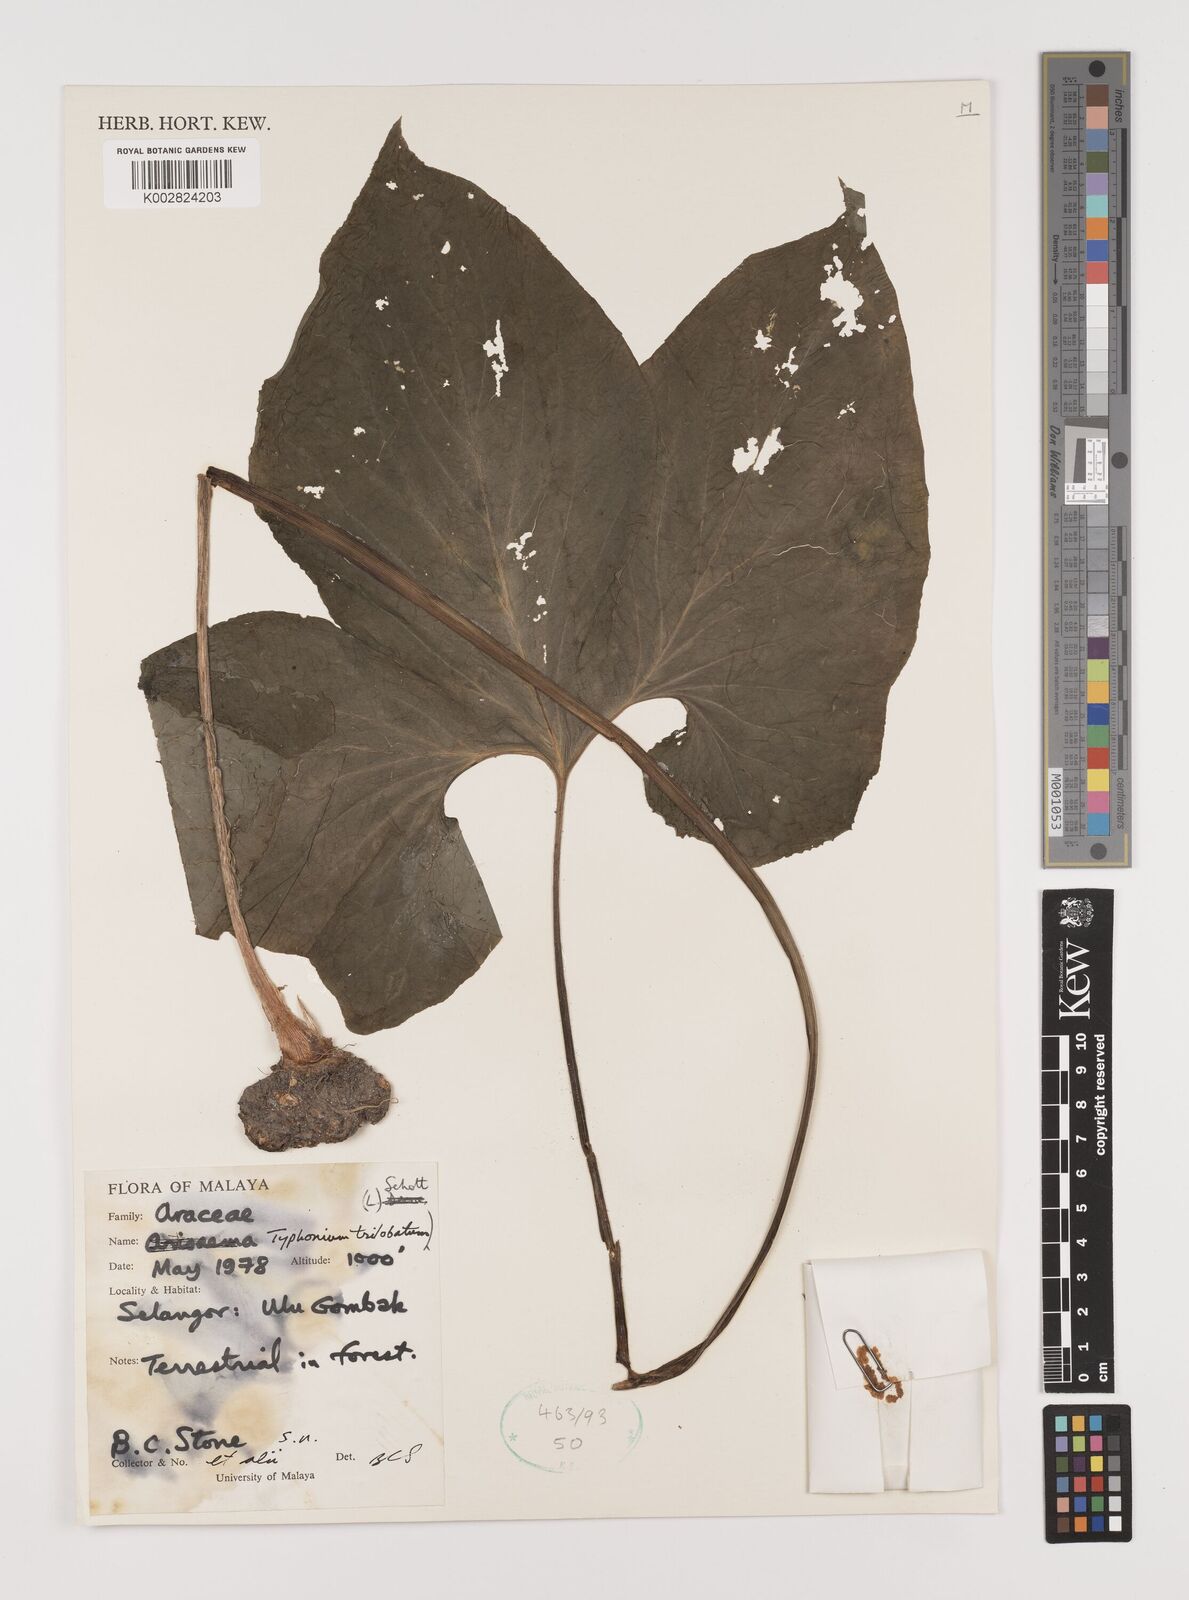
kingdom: Plantae
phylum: Tracheophyta
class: Liliopsida
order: Alismatales
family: Araceae
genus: Typhonium
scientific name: Typhonium trilobatum
